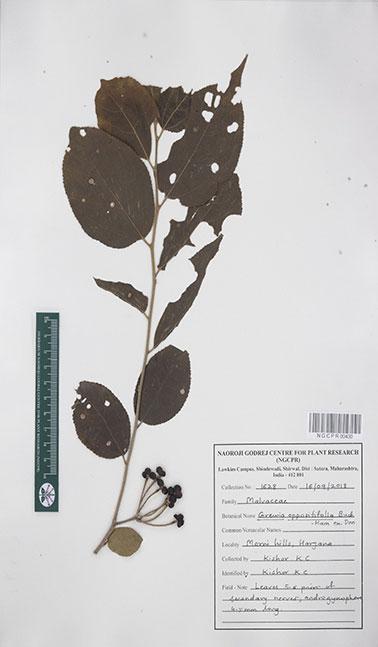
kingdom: Plantae
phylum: Tracheophyta
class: Magnoliopsida
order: Malvales
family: Malvaceae
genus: Grewia
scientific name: Grewia oppositifolia
